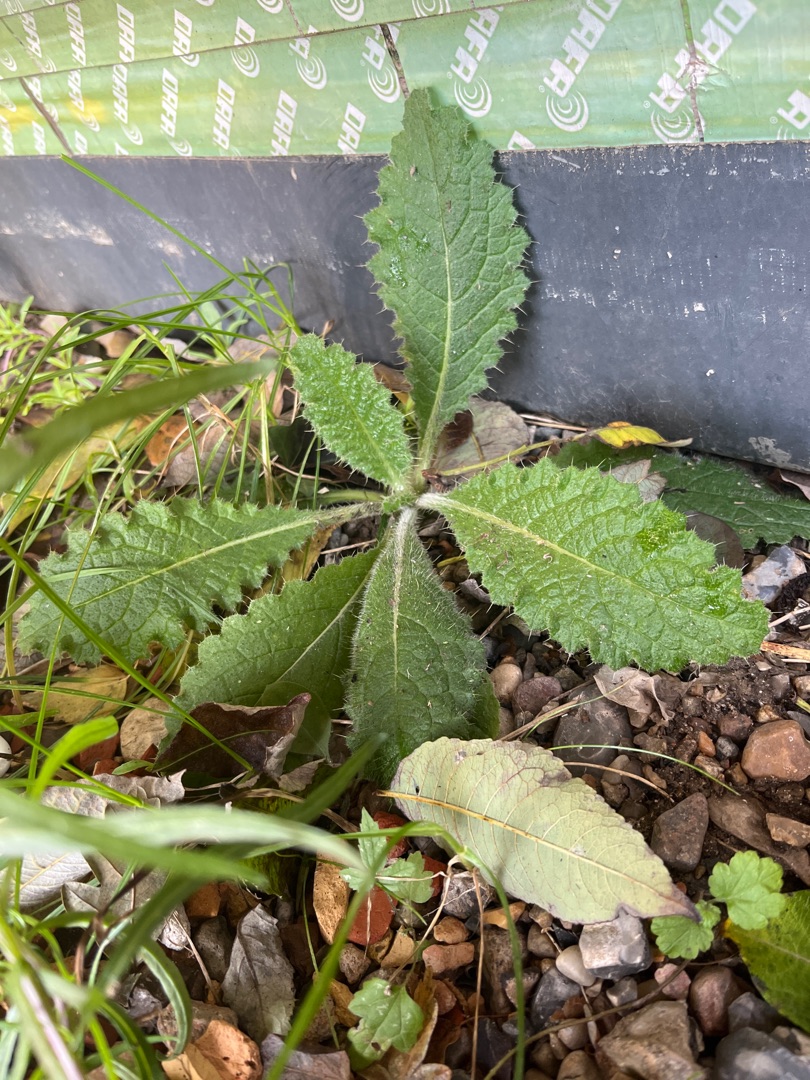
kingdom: Plantae
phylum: Tracheophyta
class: Magnoliopsida
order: Asterales
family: Asteraceae
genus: Cirsium
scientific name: Cirsium vulgare
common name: Horse-tidsel
